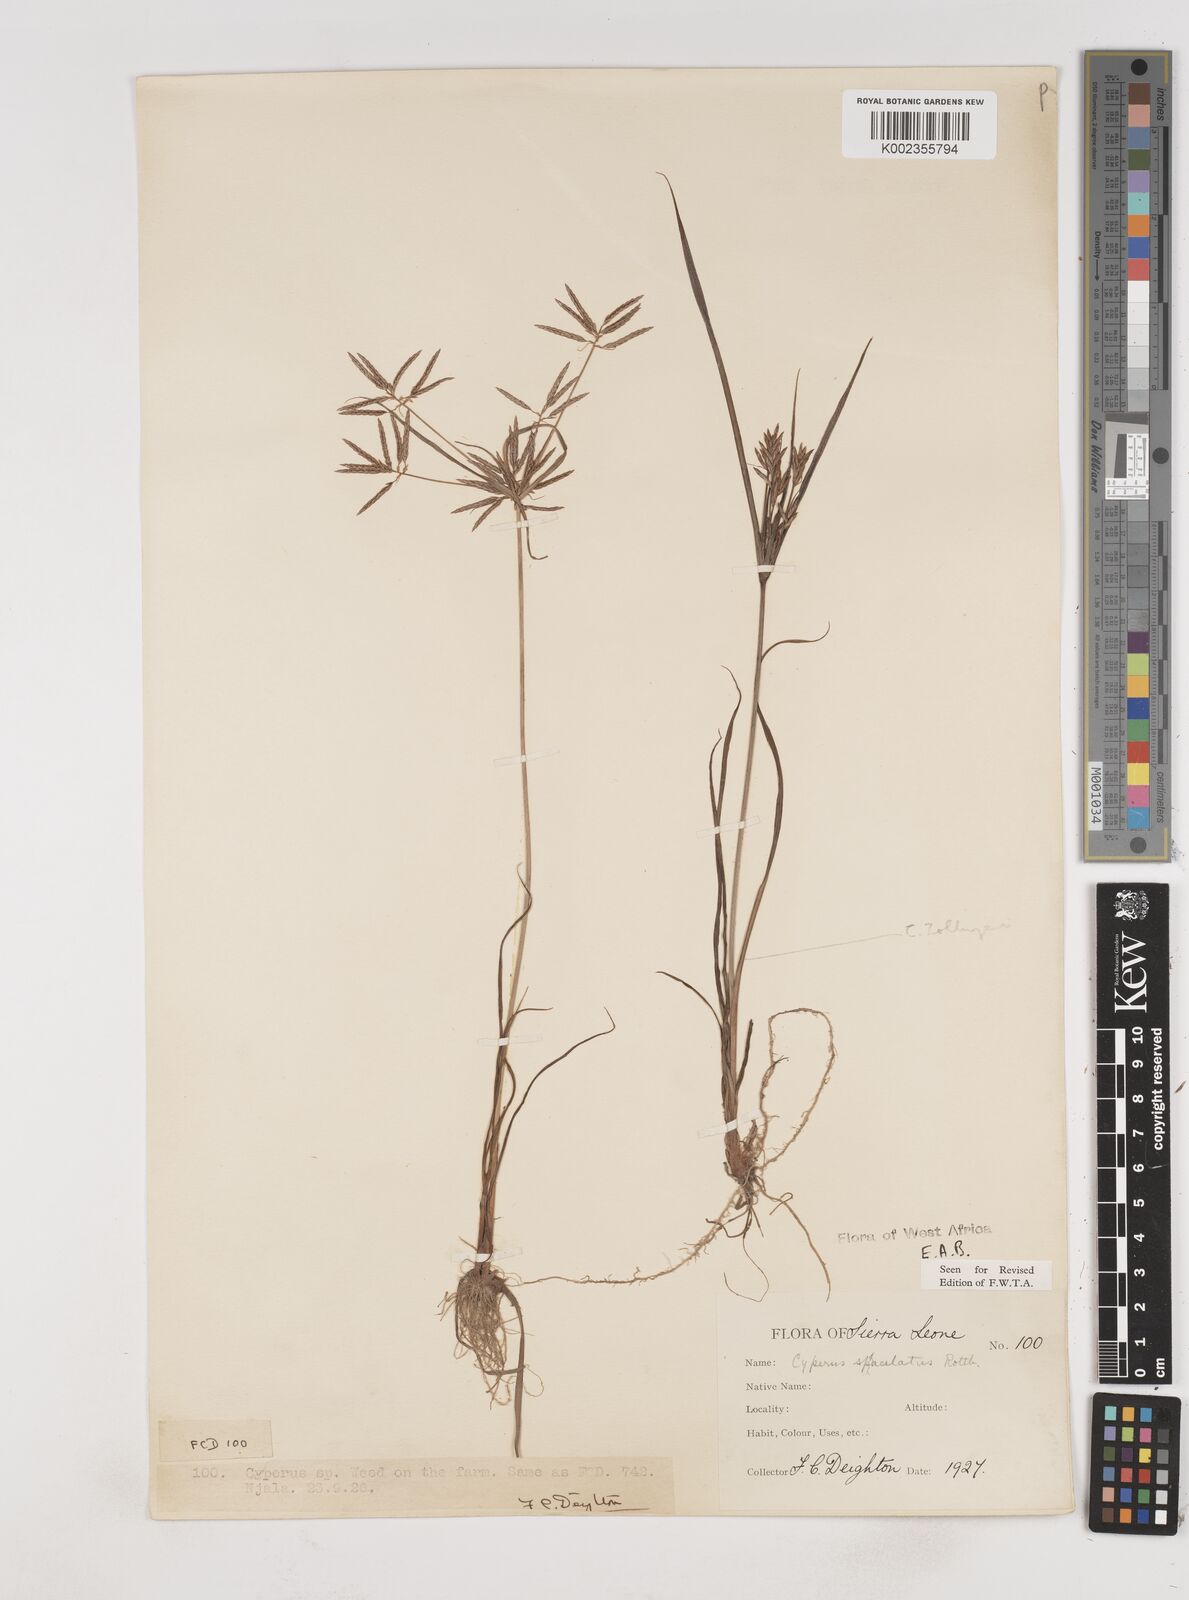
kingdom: Plantae
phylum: Tracheophyta
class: Liliopsida
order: Poales
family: Cyperaceae
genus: Cyperus
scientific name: Cyperus sphacelatus
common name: Roadside flatsedge
